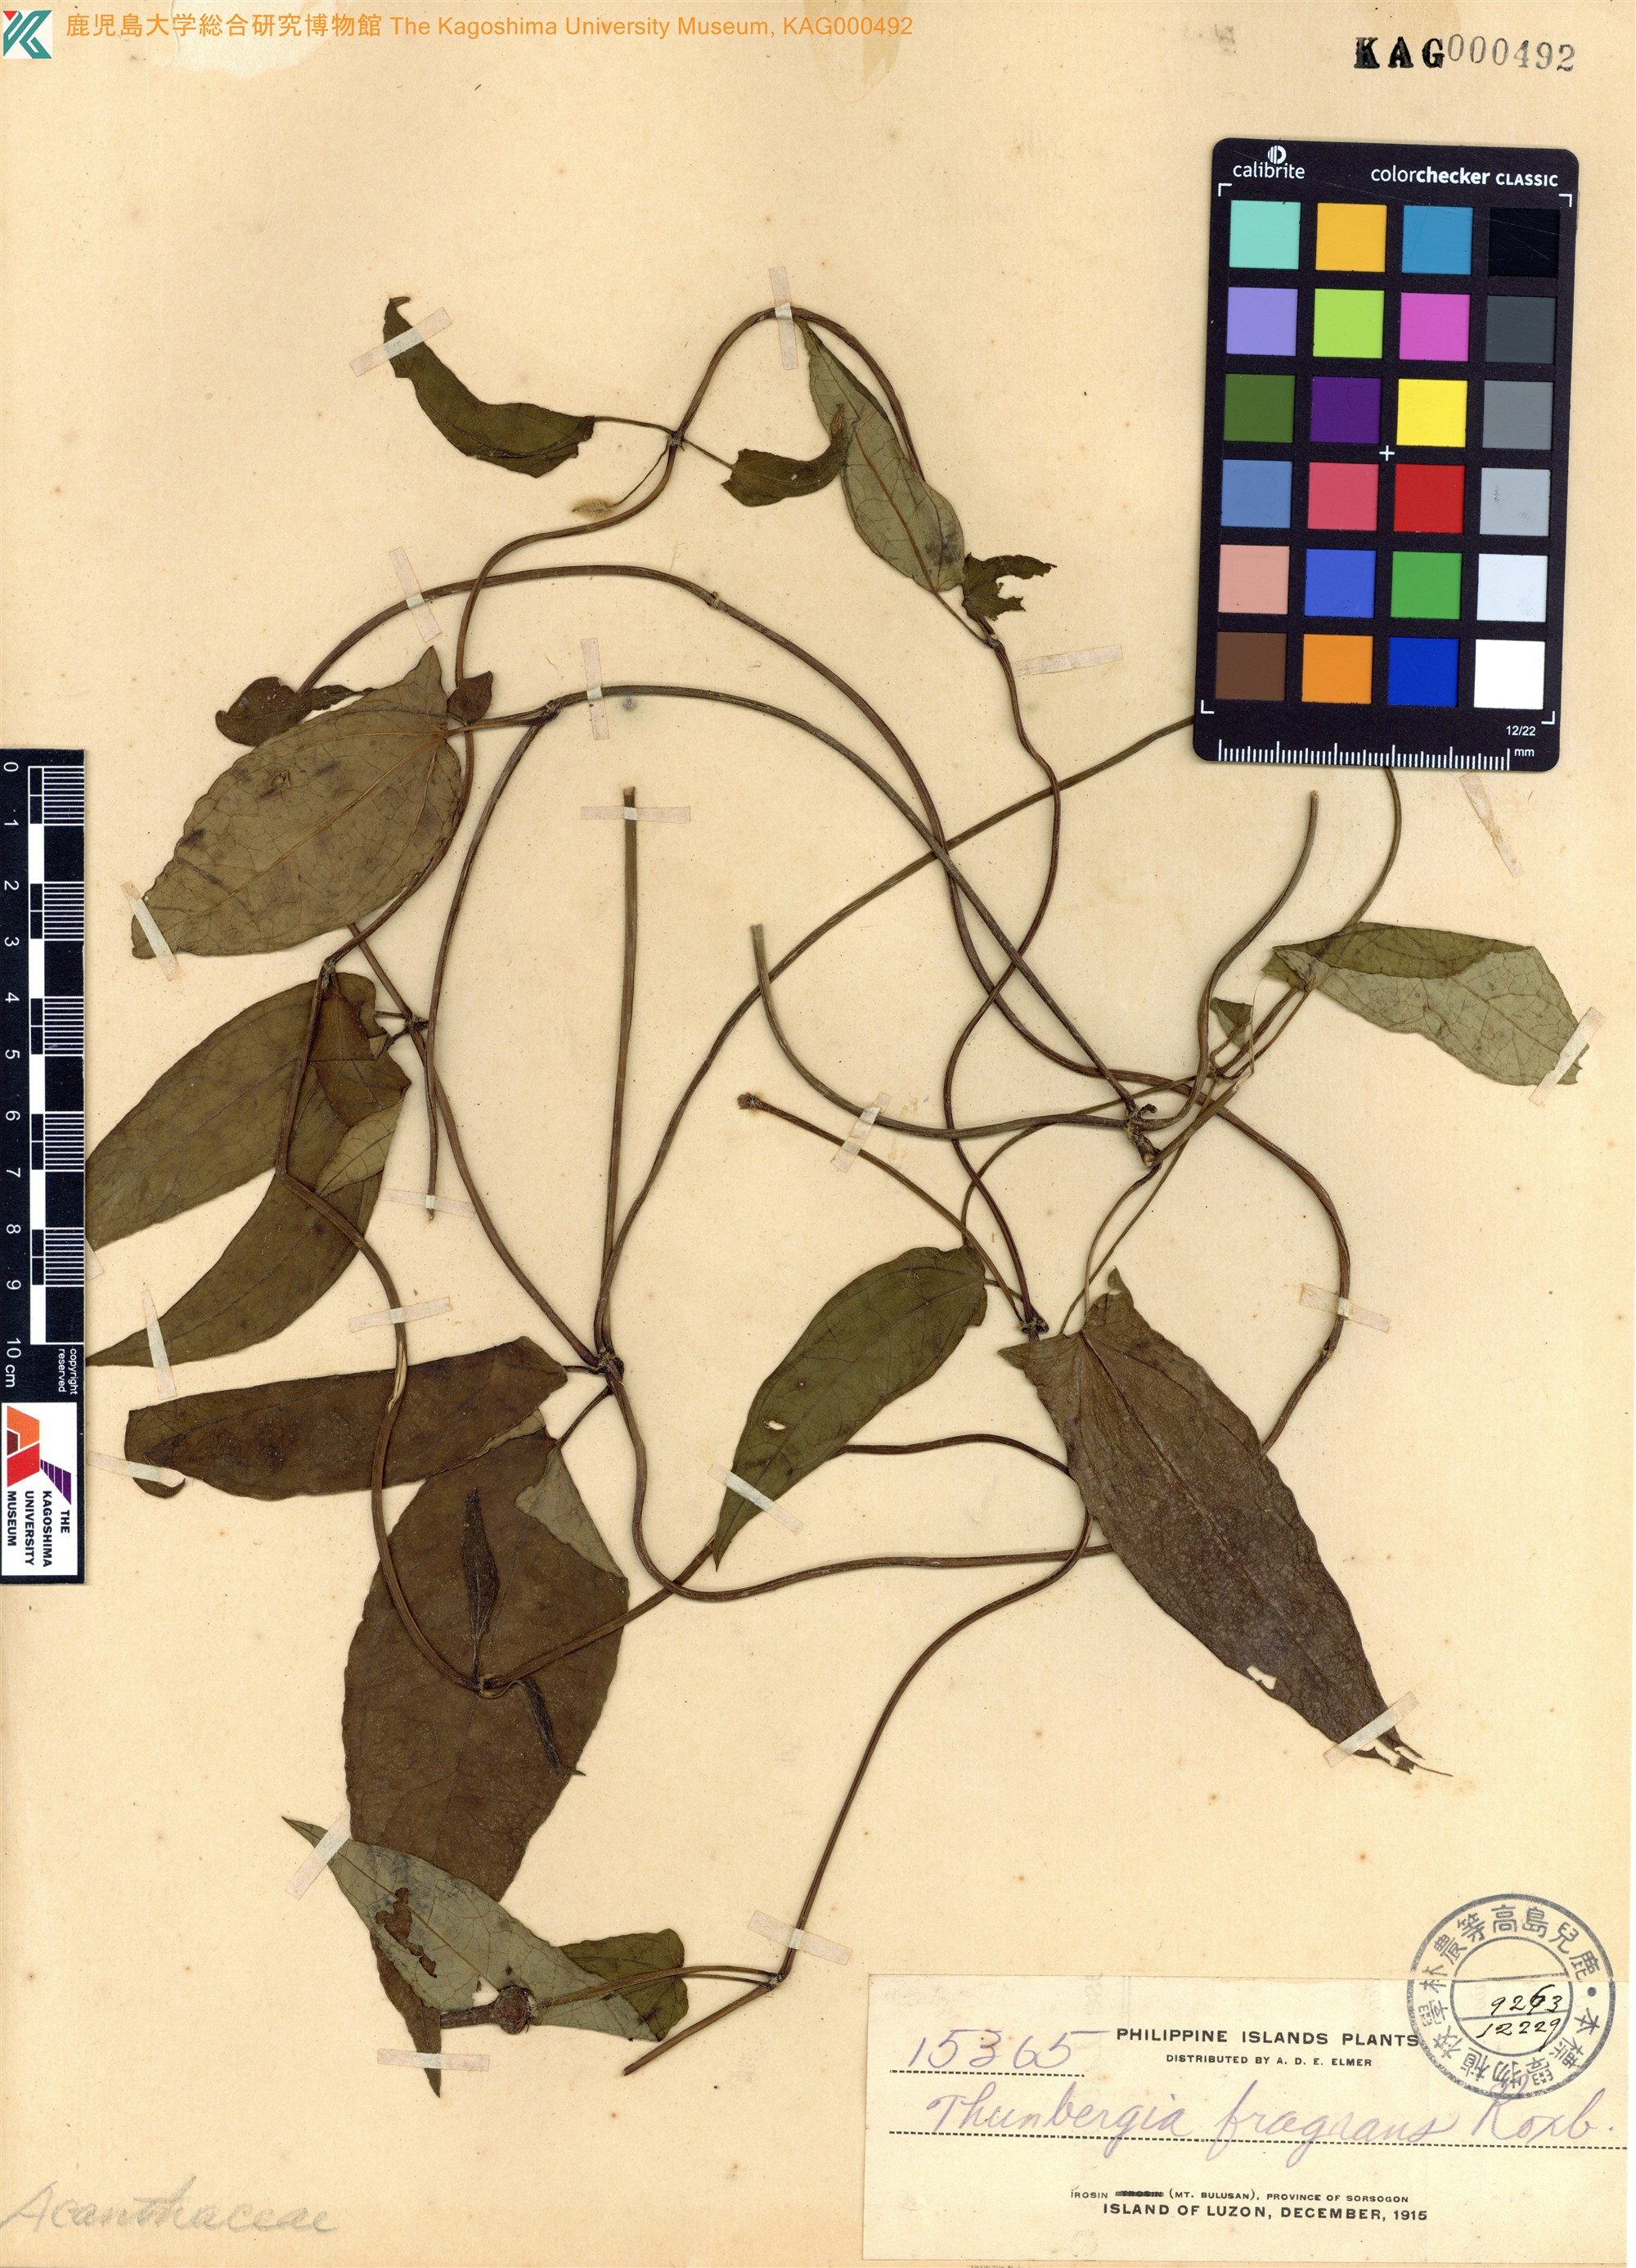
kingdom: Plantae
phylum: Tracheophyta
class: Magnoliopsida
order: Lamiales
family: Acanthaceae
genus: Thunbergia
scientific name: Thunbergia fragrans
